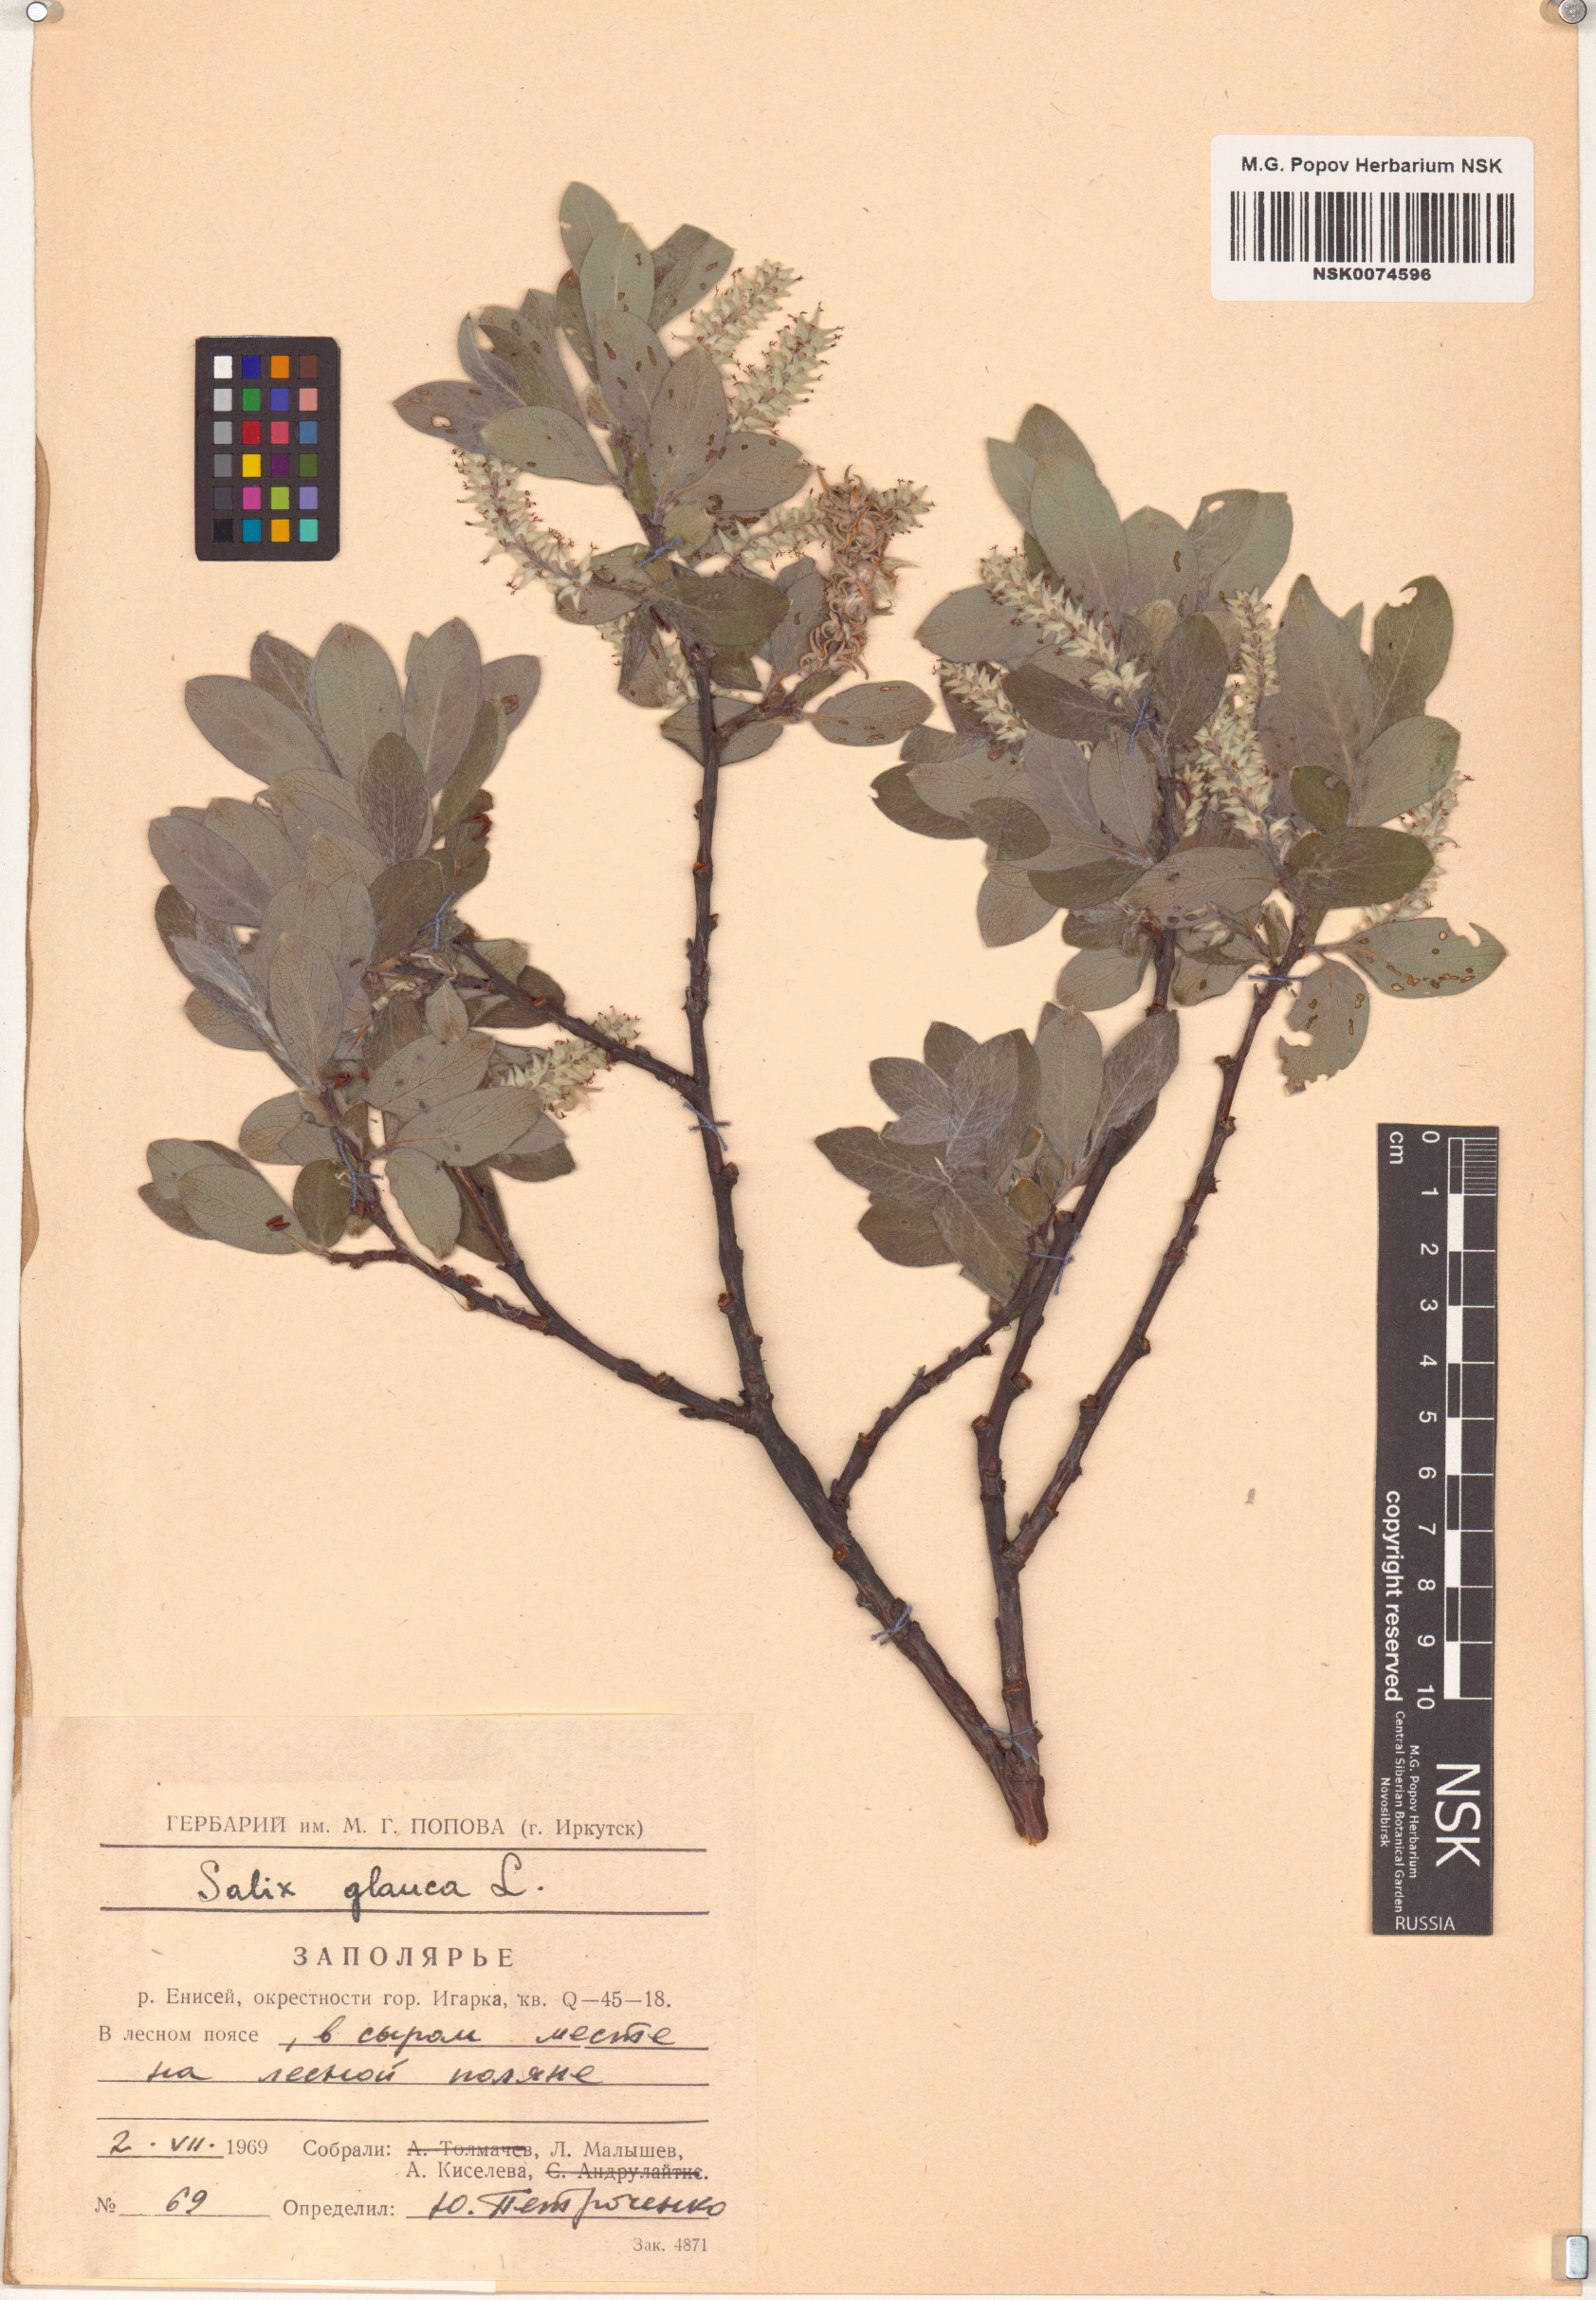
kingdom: Plantae
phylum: Tracheophyta
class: Magnoliopsida
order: Malpighiales
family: Salicaceae
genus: Salix
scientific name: Salix glauca
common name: Glaucous willow
